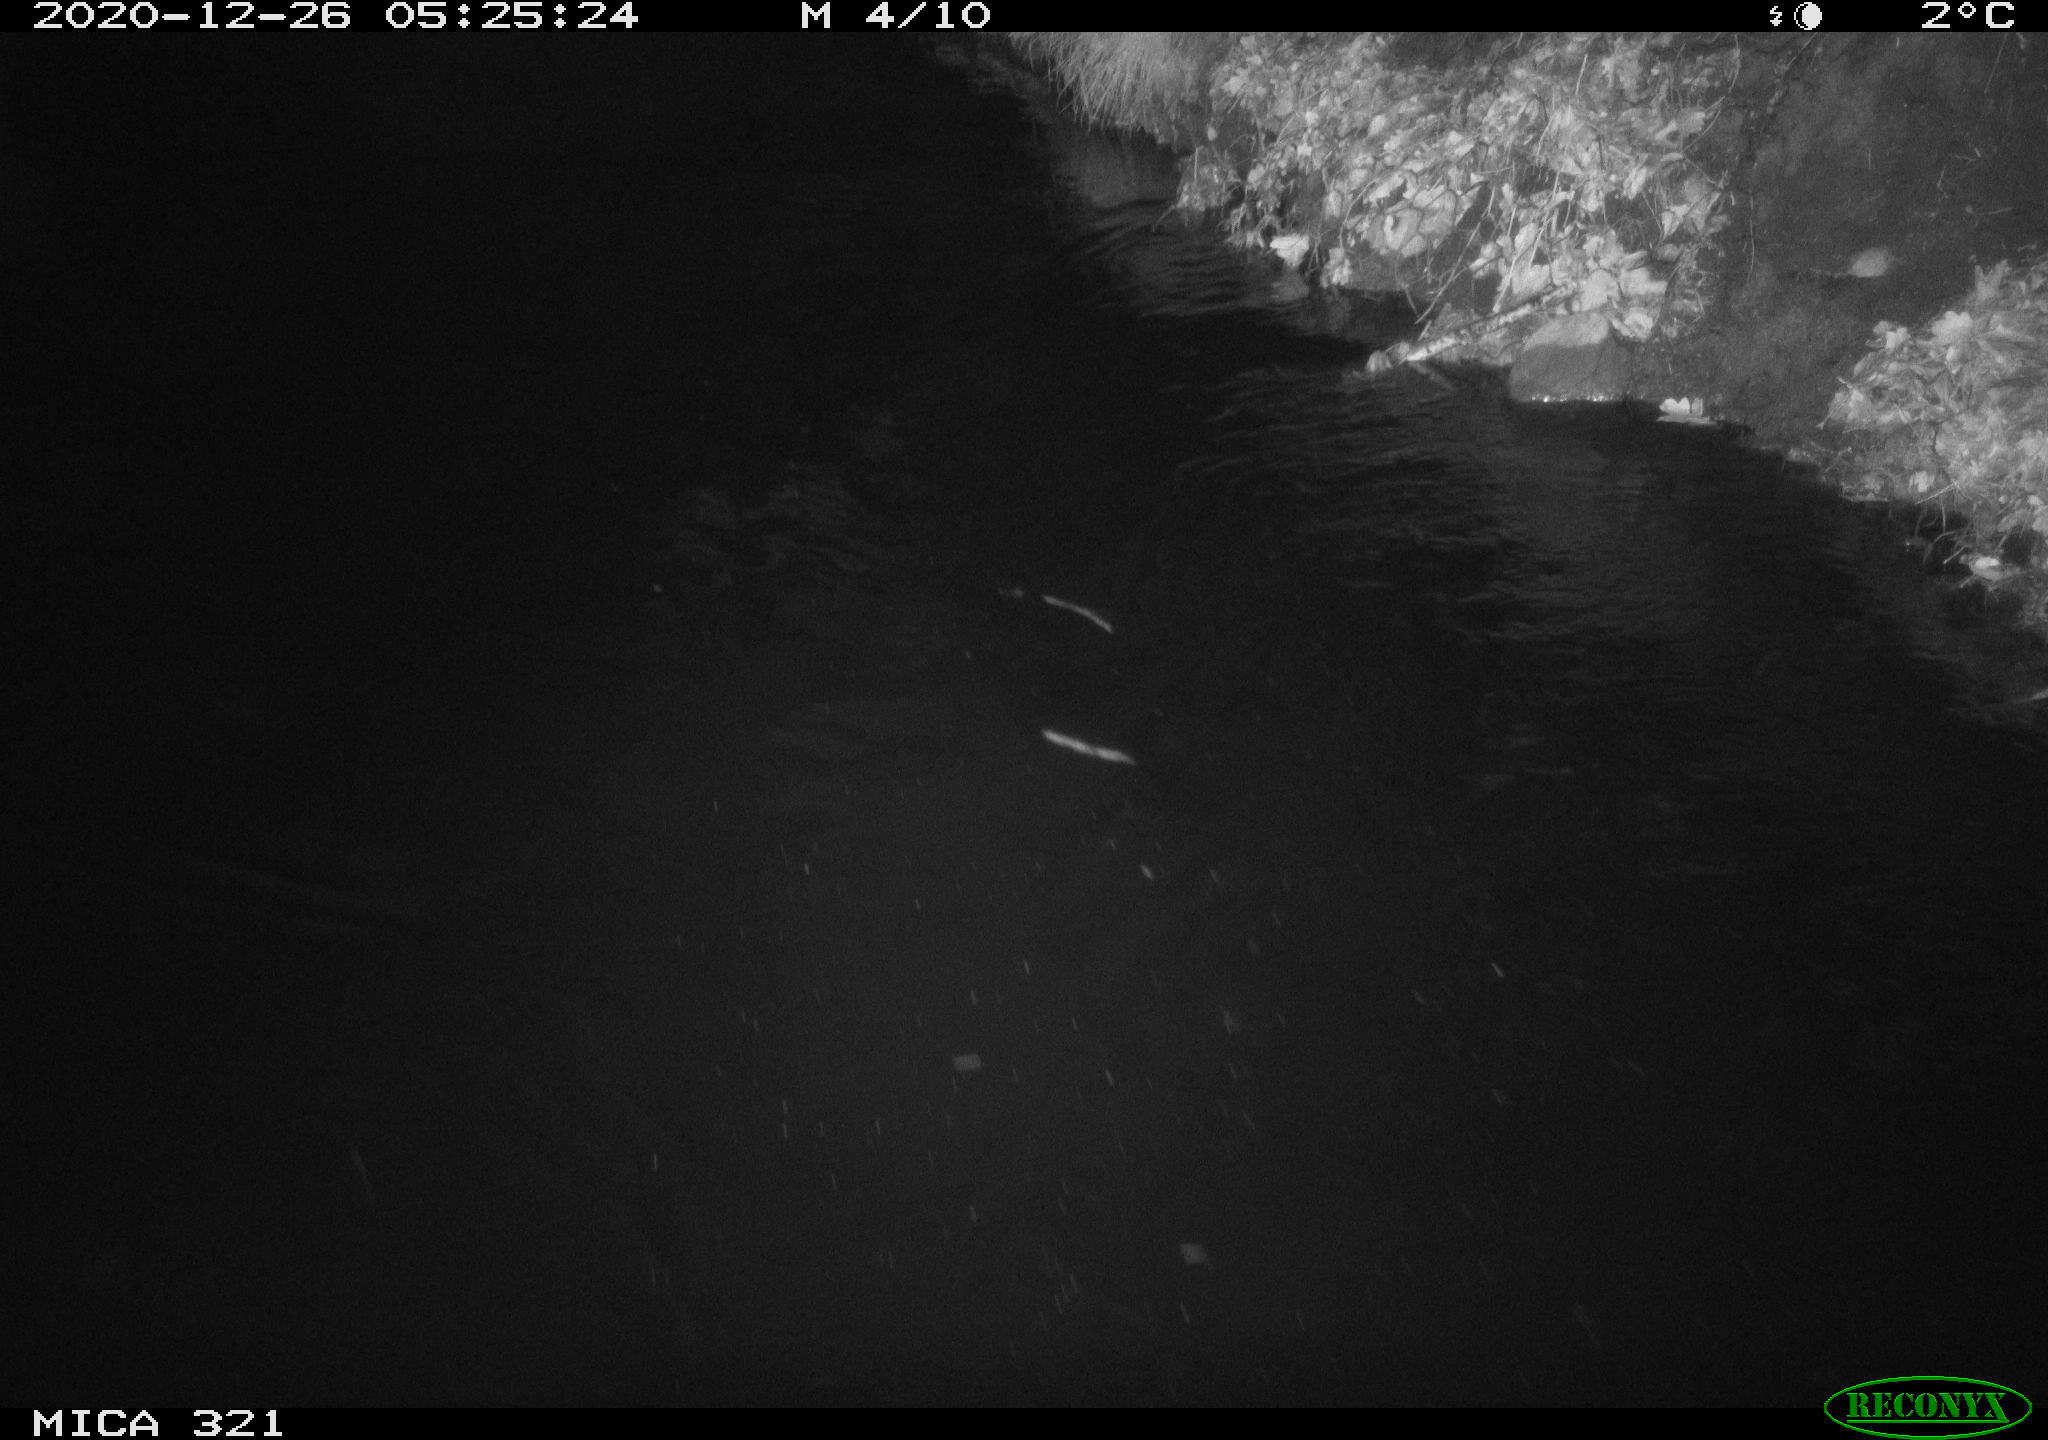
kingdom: Animalia
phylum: Chordata
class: Aves
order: Anseriformes
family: Anatidae
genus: Anas
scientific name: Anas platyrhynchos
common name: Mallard
